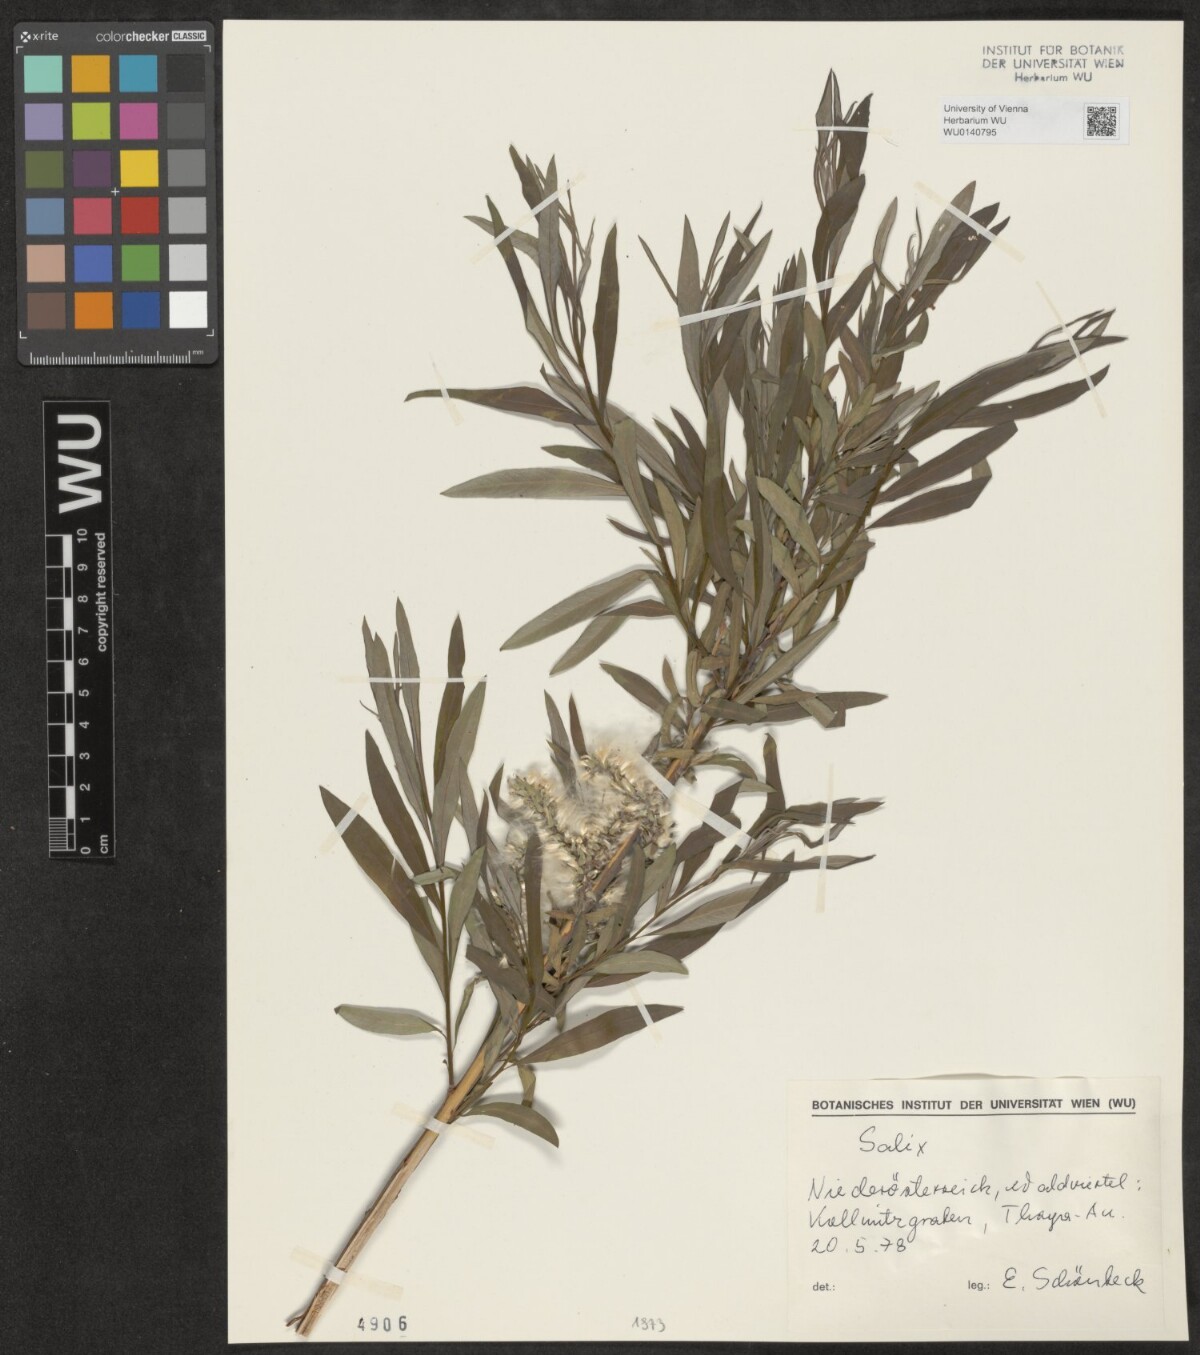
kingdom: Plantae
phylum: Tracheophyta
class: Magnoliopsida
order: Malpighiales
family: Salicaceae
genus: Salix
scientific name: Salix
